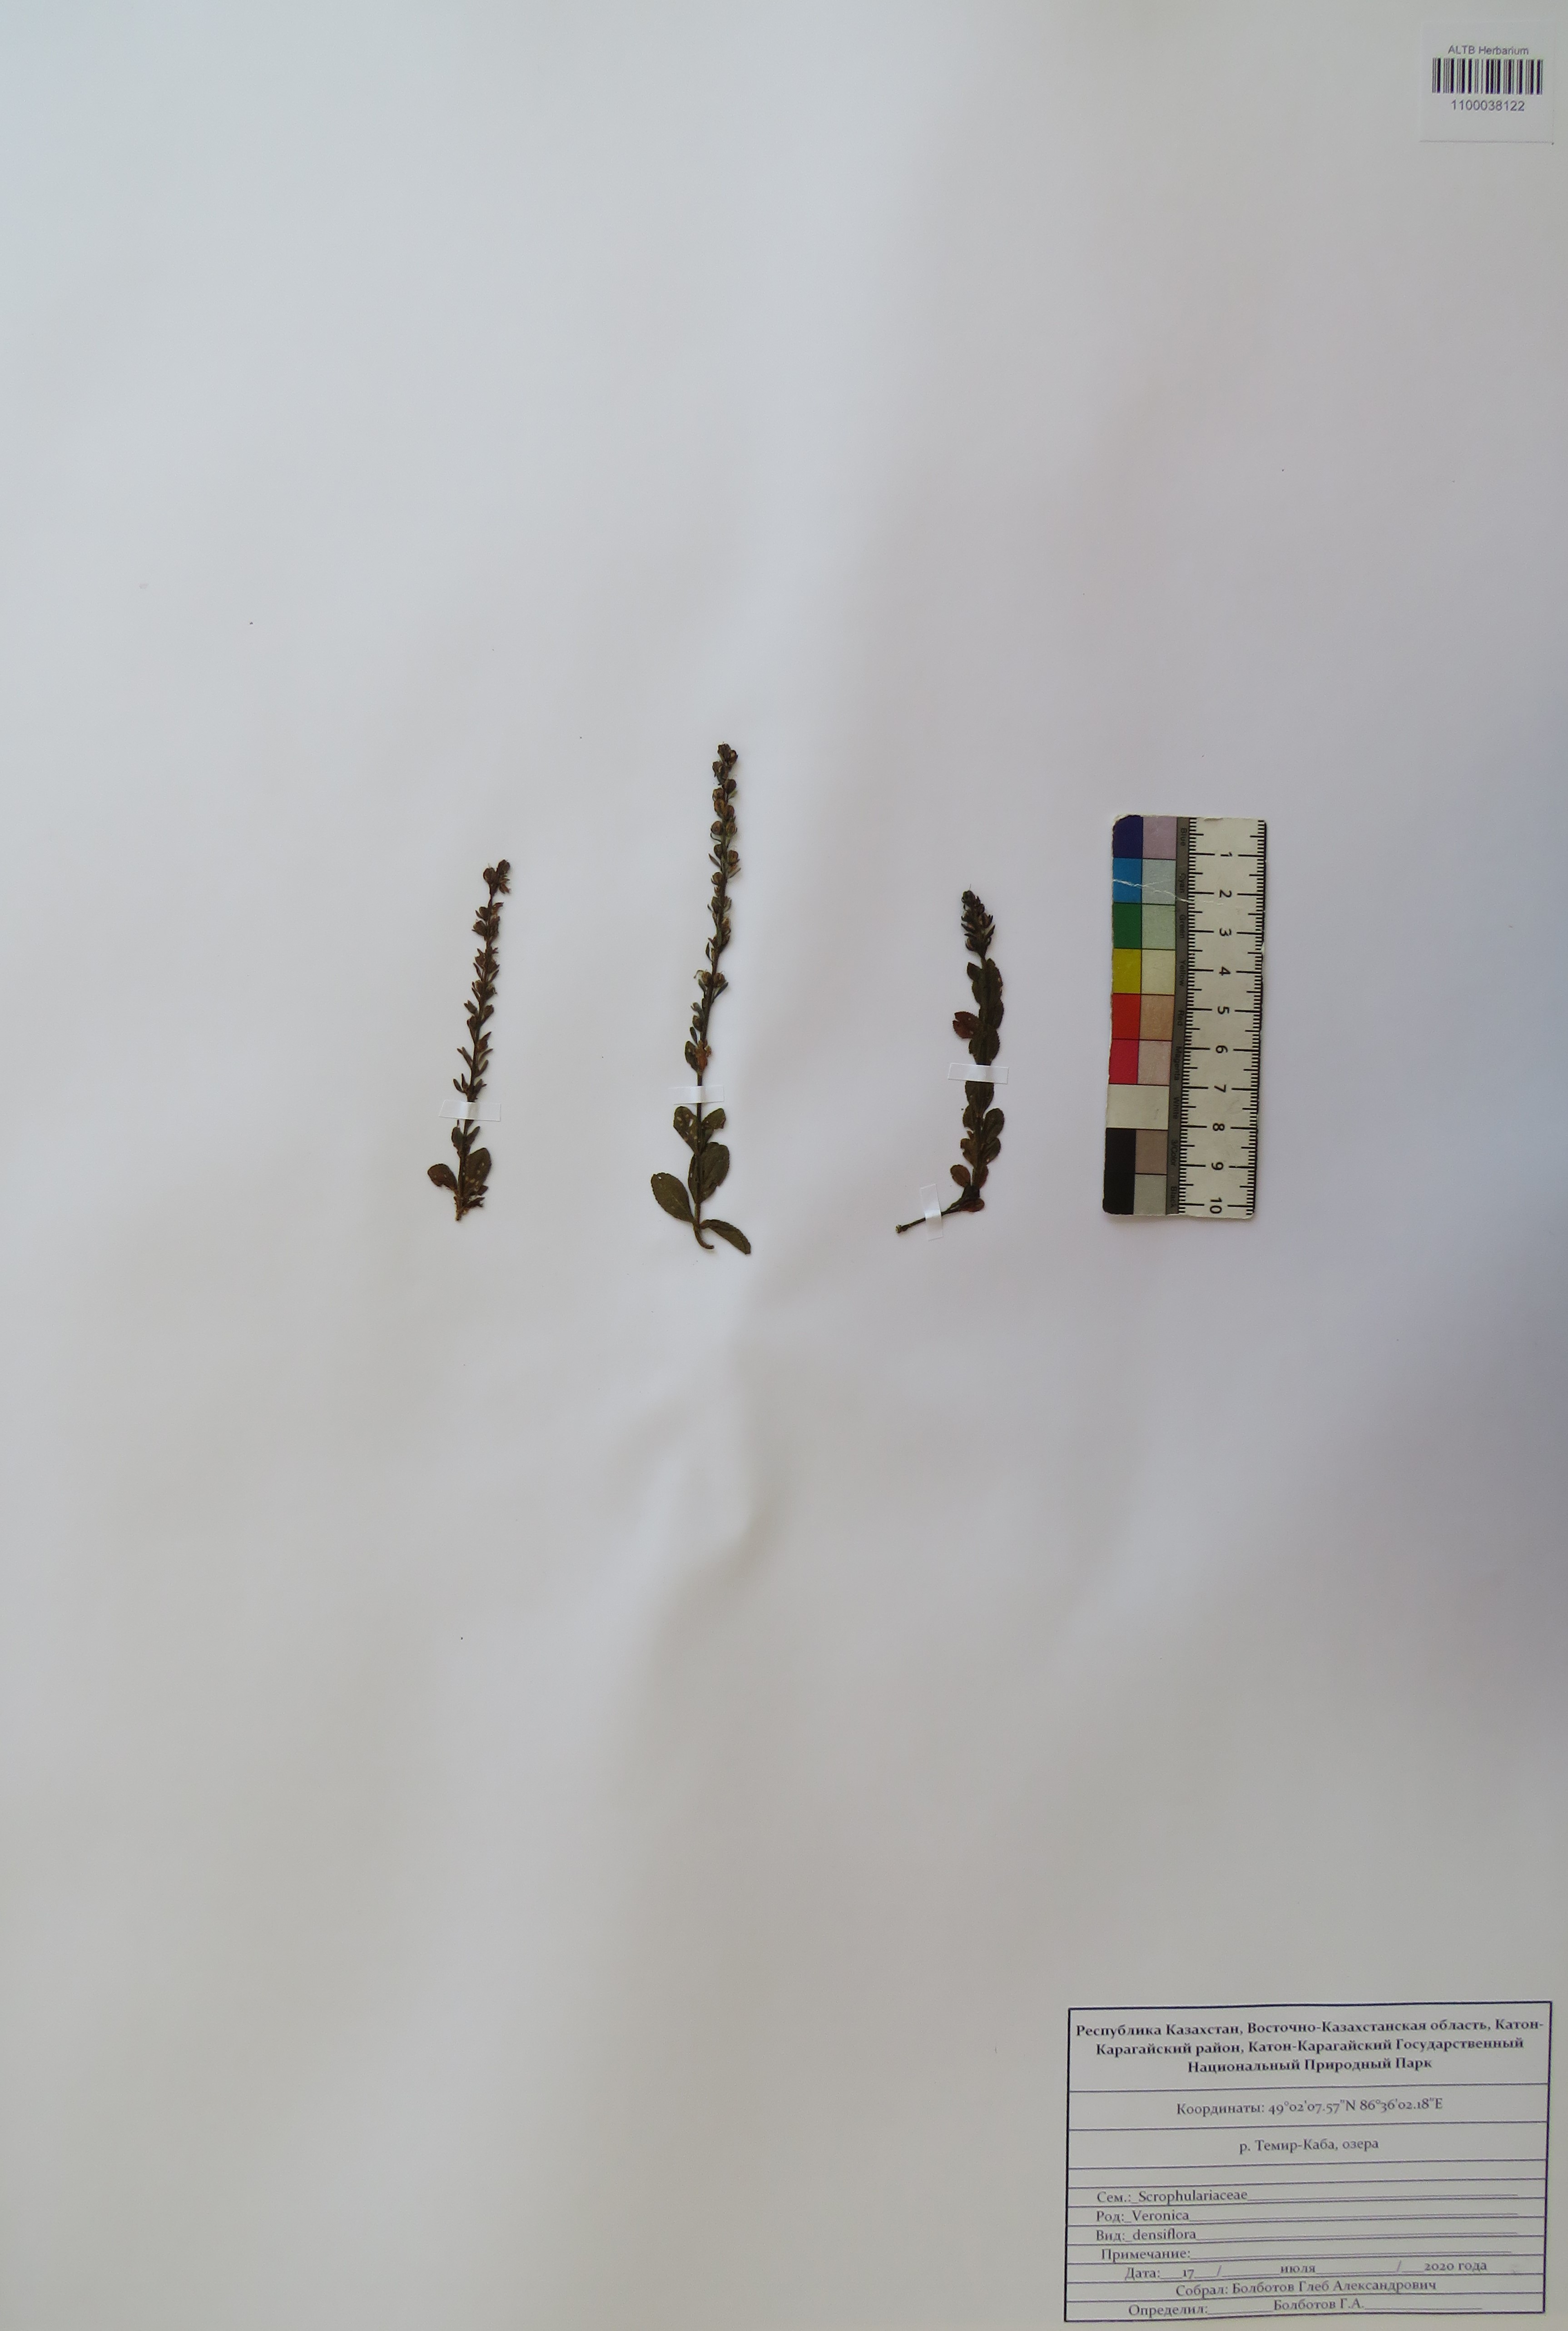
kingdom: Plantae
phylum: Tracheophyta
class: Magnoliopsida
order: Lamiales
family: Plantaginaceae
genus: Veronica
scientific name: Veronica densiflora
